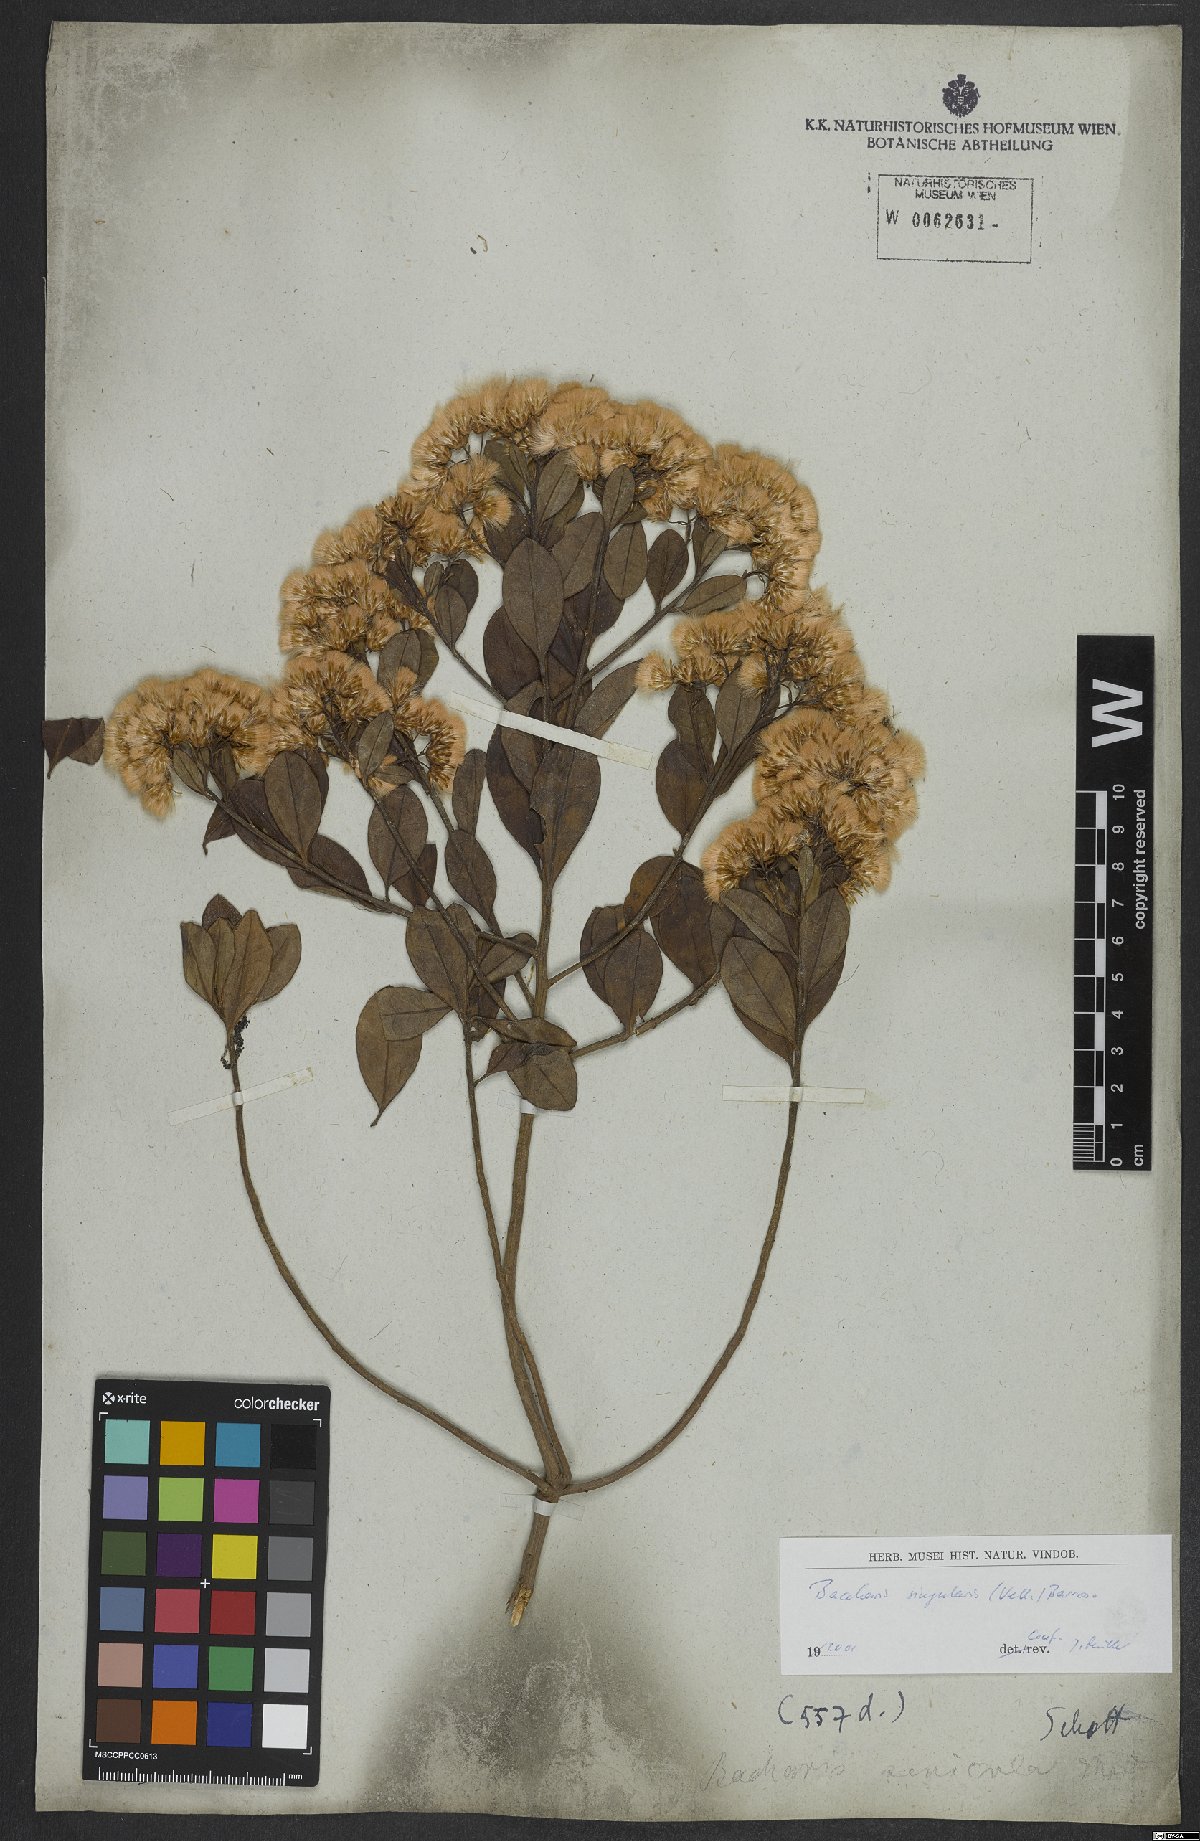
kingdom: Plantae
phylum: Tracheophyta
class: Magnoliopsida
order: Asterales
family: Asteraceae
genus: Baccharis
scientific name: Baccharis singularis
